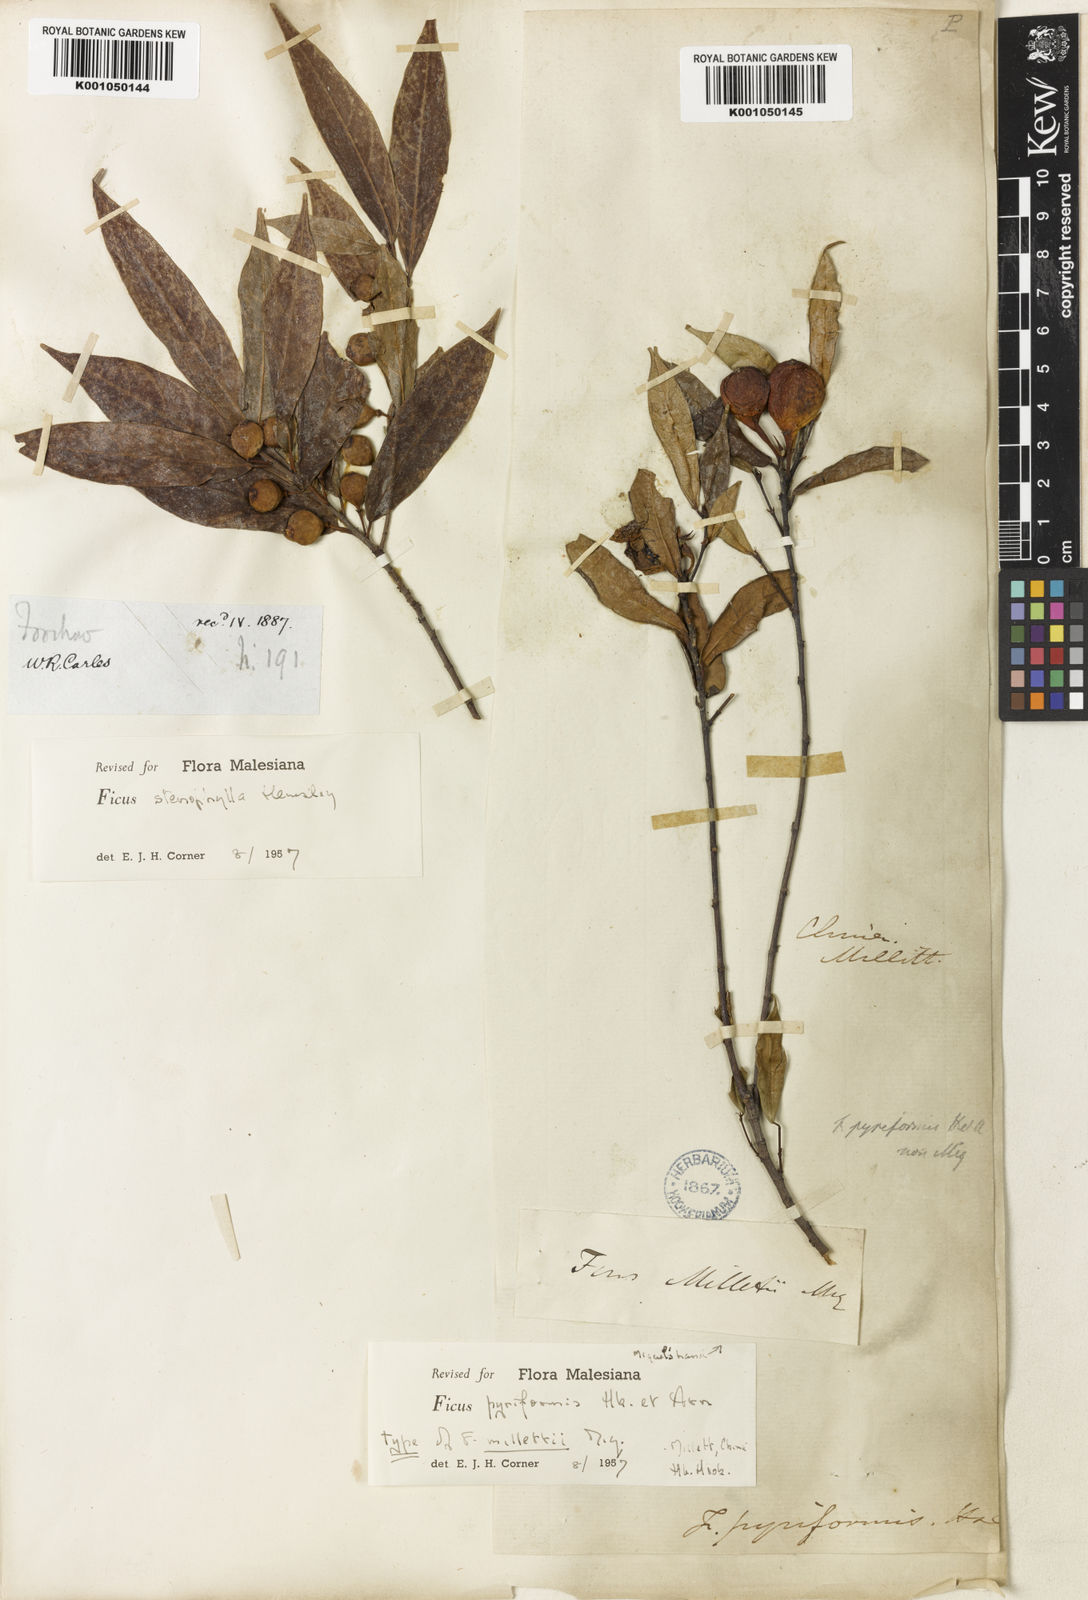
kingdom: Plantae
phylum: Tracheophyta
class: Magnoliopsida
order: Rosales
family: Moraceae
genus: Ficus
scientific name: Ficus pyriformis
